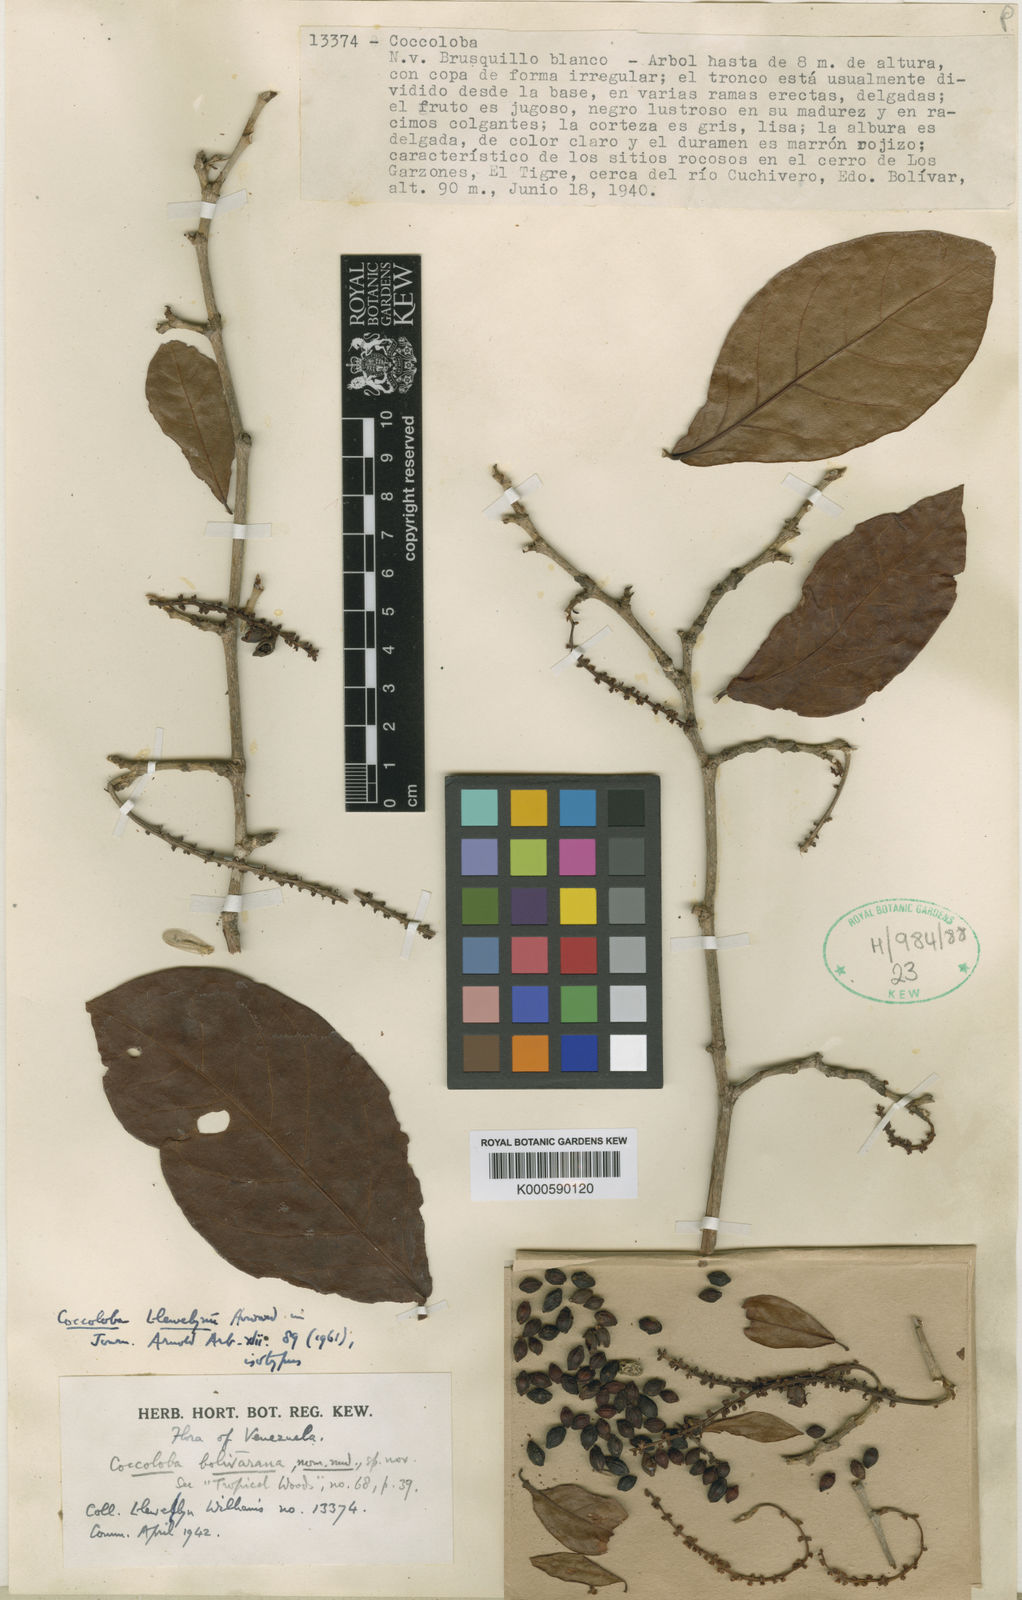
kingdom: Plantae
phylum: Tracheophyta
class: Magnoliopsida
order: Caryophyllales
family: Polygonaceae
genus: Coccoloba
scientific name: Coccoloba llewelynii
